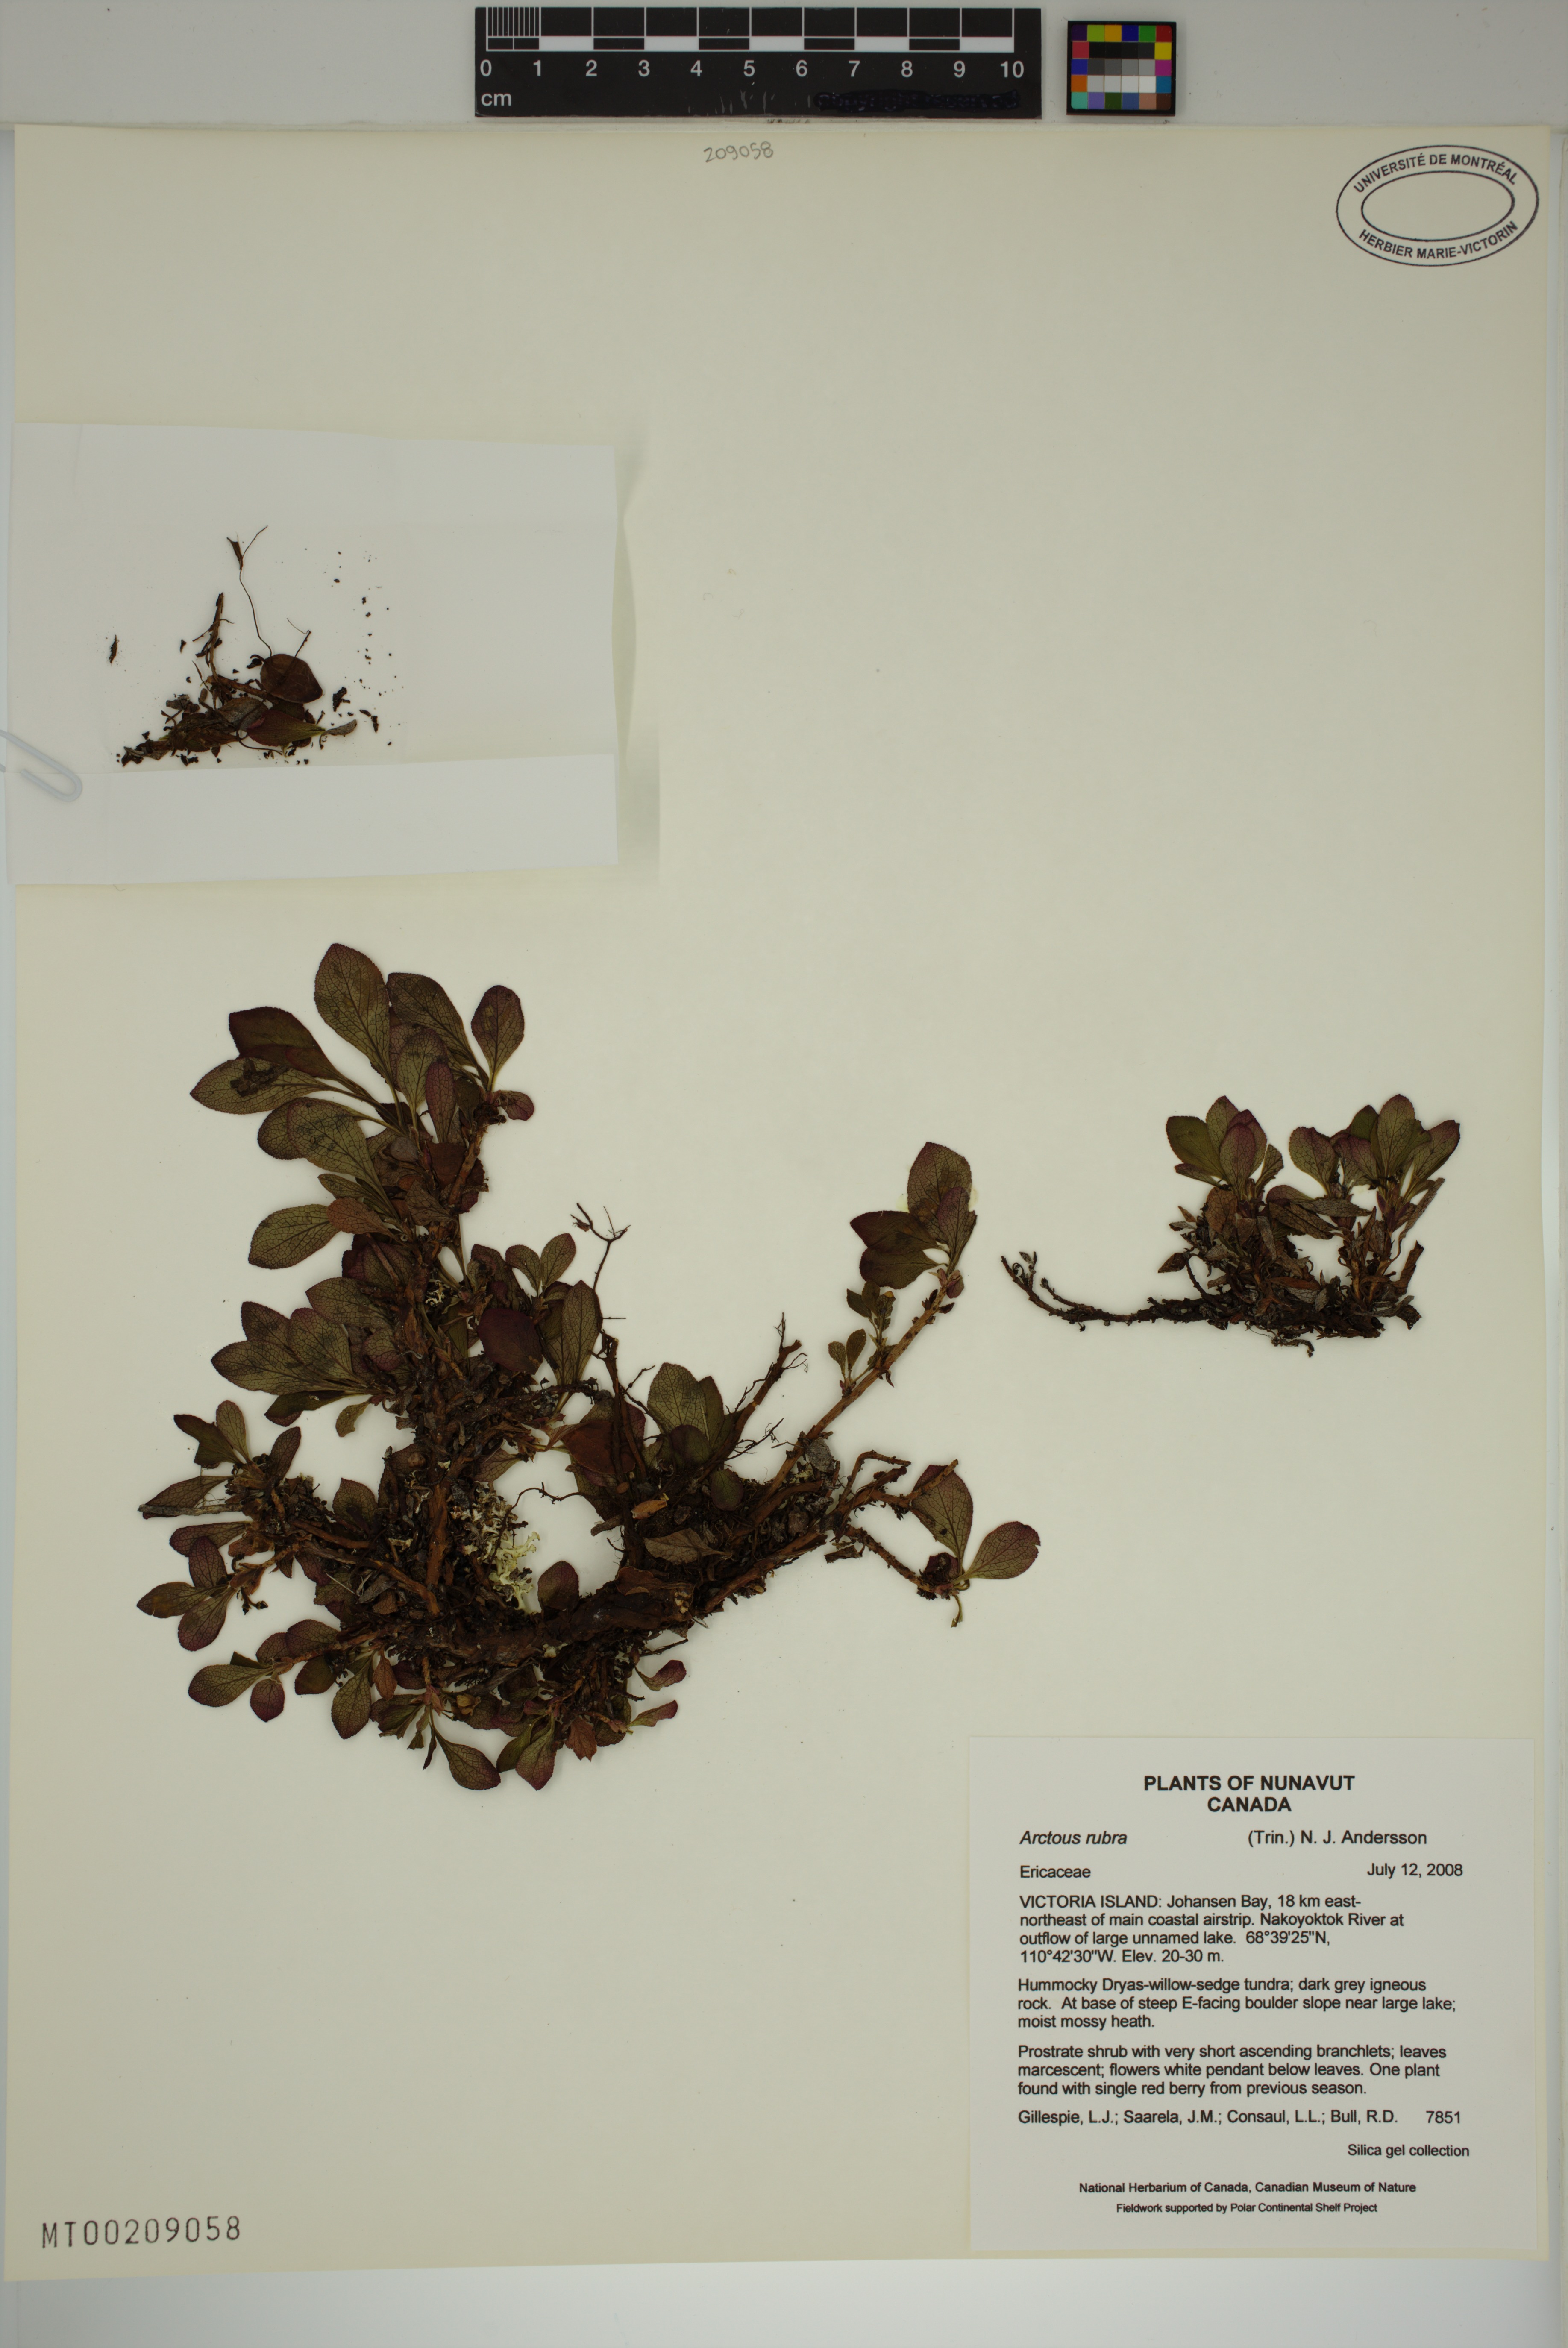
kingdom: Plantae
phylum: Tracheophyta
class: Magnoliopsida
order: Ericales
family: Ericaceae
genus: Arctostaphylos
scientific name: Arctostaphylos rubra
